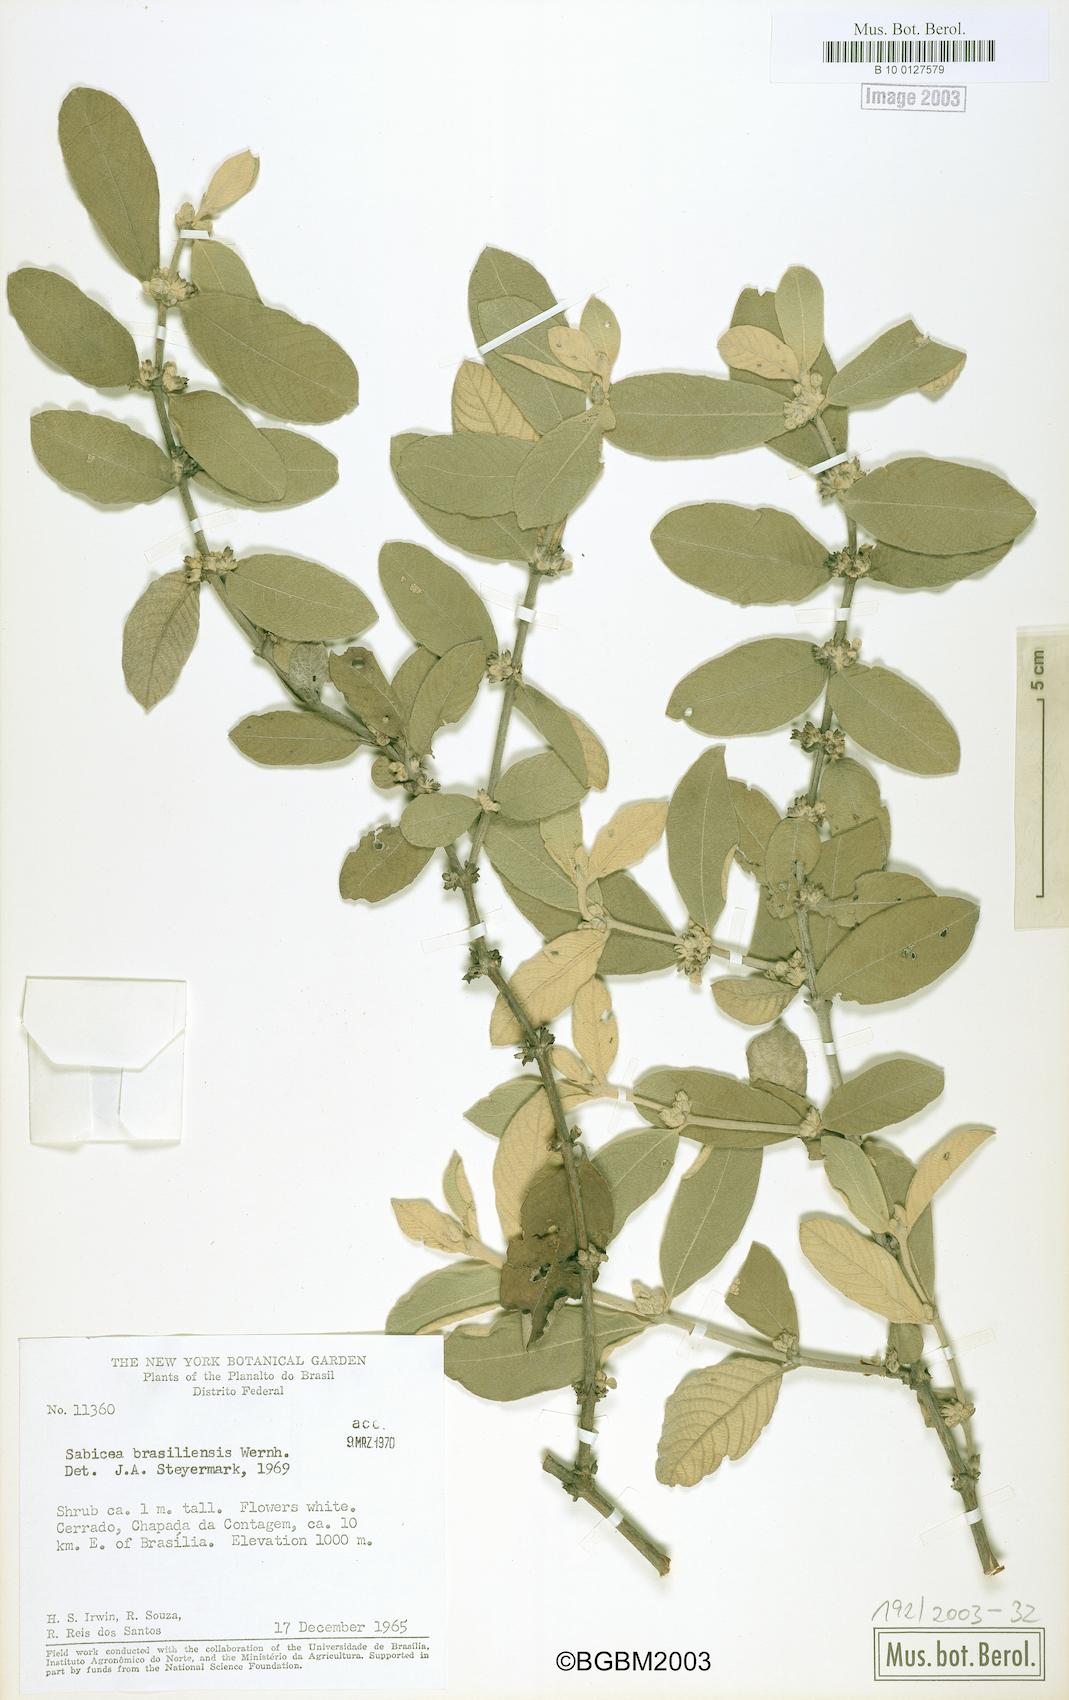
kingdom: Plantae
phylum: Tracheophyta
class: Magnoliopsida
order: Gentianales
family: Rubiaceae
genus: Sabicea
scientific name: Sabicea brasiliensis
